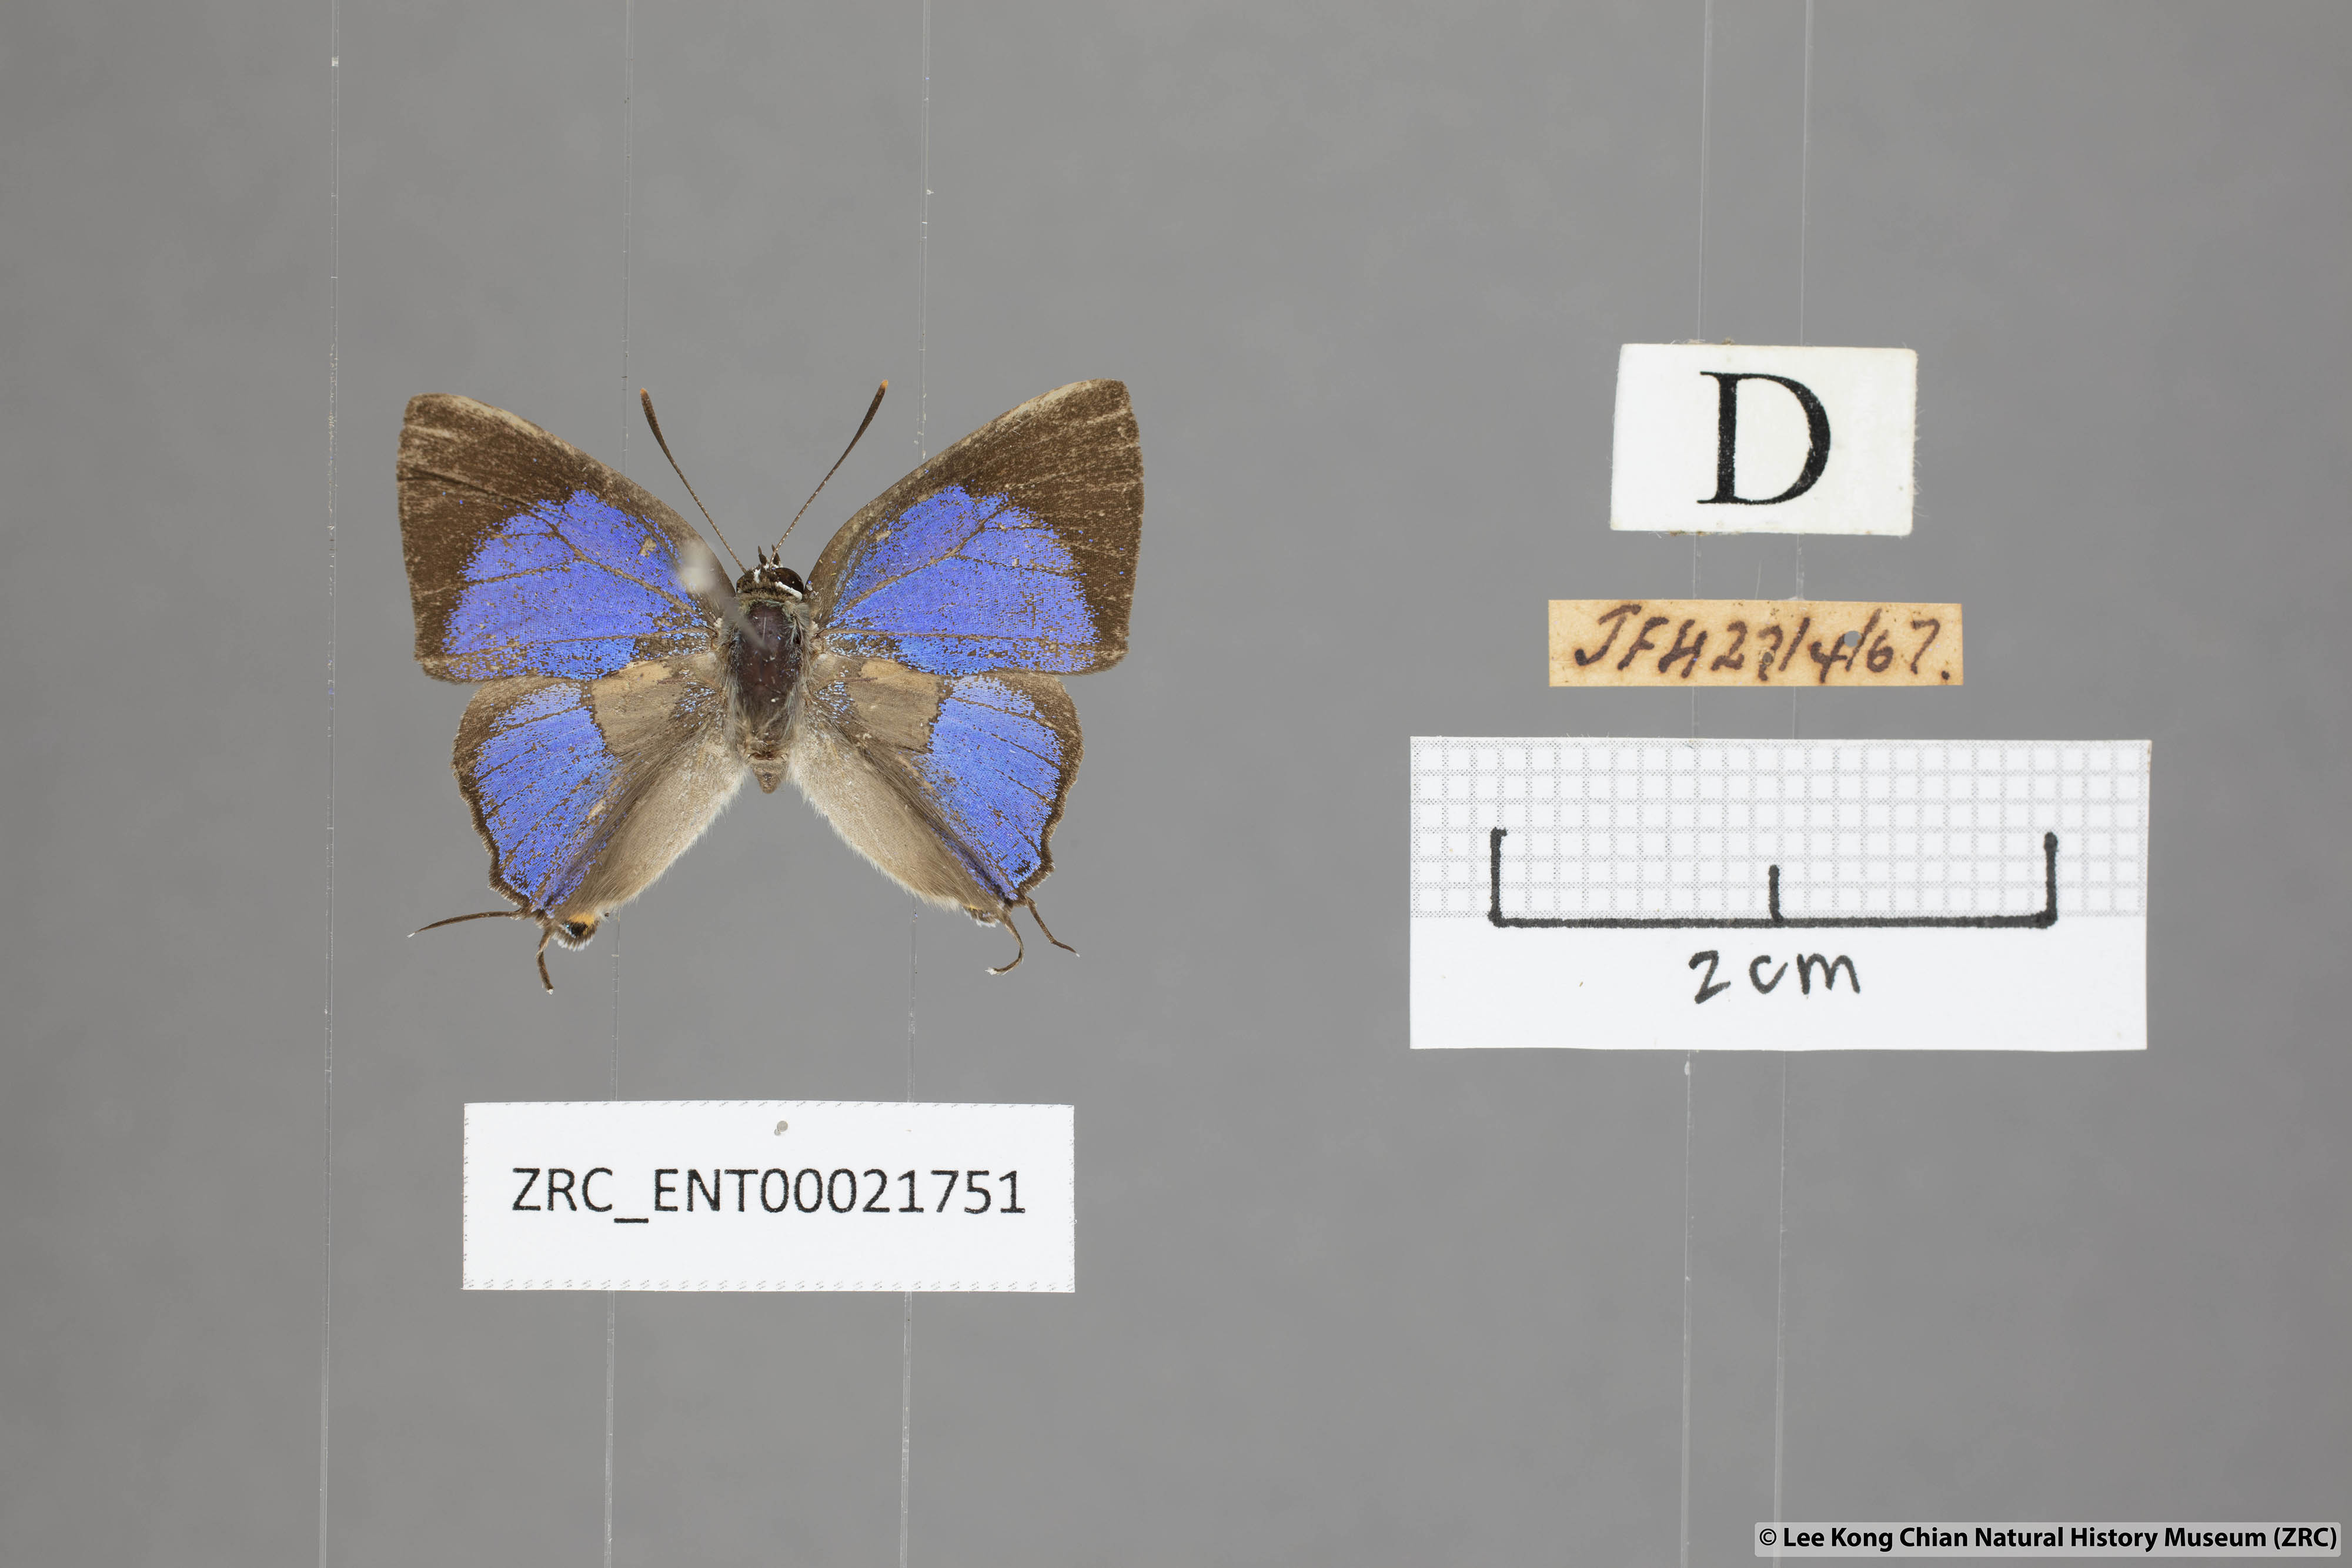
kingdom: Animalia
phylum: Arthropoda
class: Insecta
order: Lepidoptera
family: Lycaenidae
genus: Pratapa
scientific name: Pratapa
